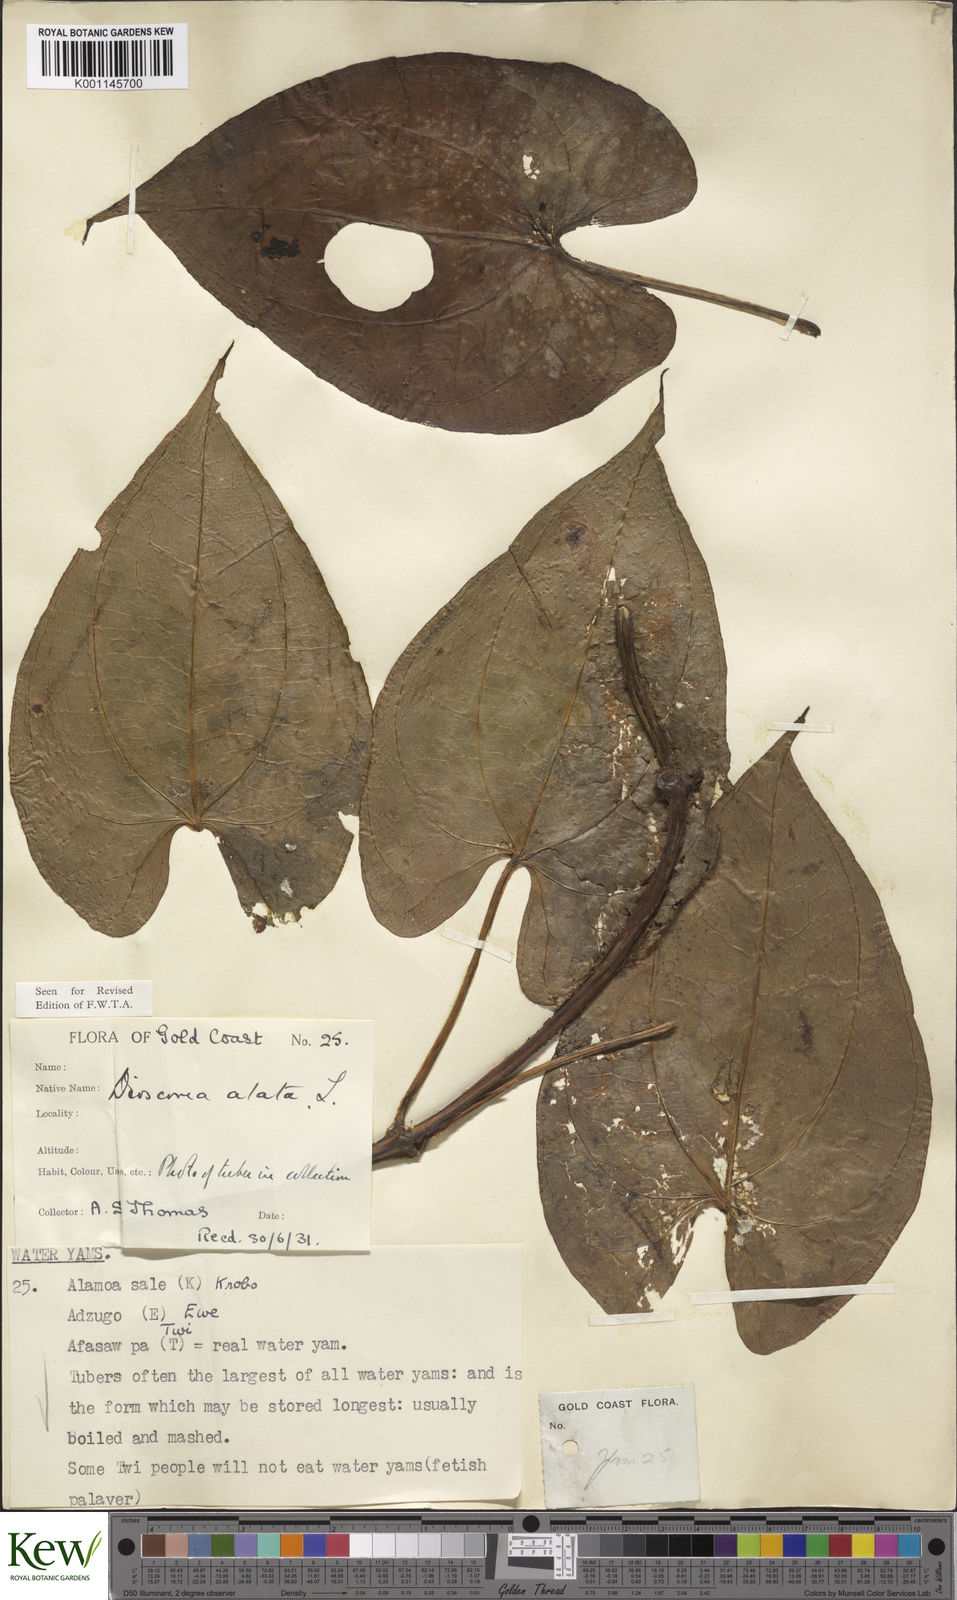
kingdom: Plantae
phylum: Tracheophyta
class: Liliopsida
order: Dioscoreales
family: Dioscoreaceae
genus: Dioscorea
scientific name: Dioscorea alata
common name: Water yam
